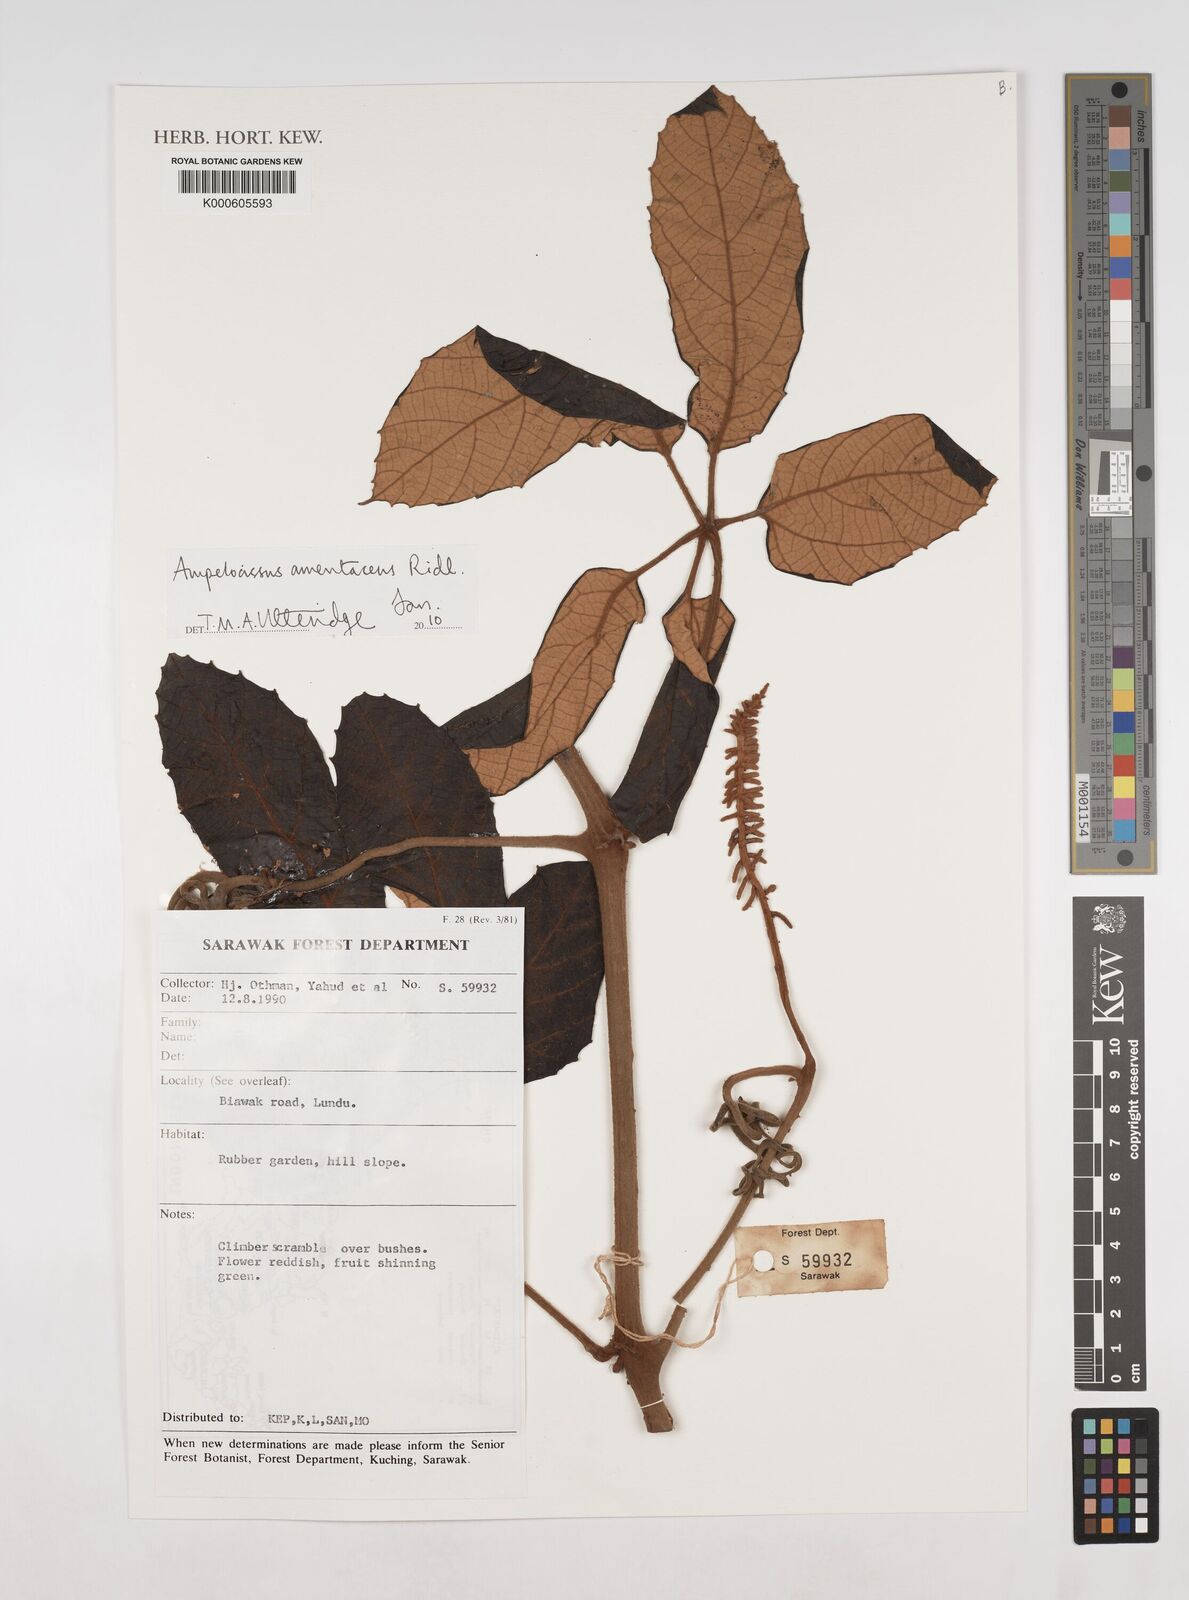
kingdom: Plantae
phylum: Tracheophyta
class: Magnoliopsida
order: Vitales
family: Vitaceae
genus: Ampelocissus
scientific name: Ampelocissus amentacea
